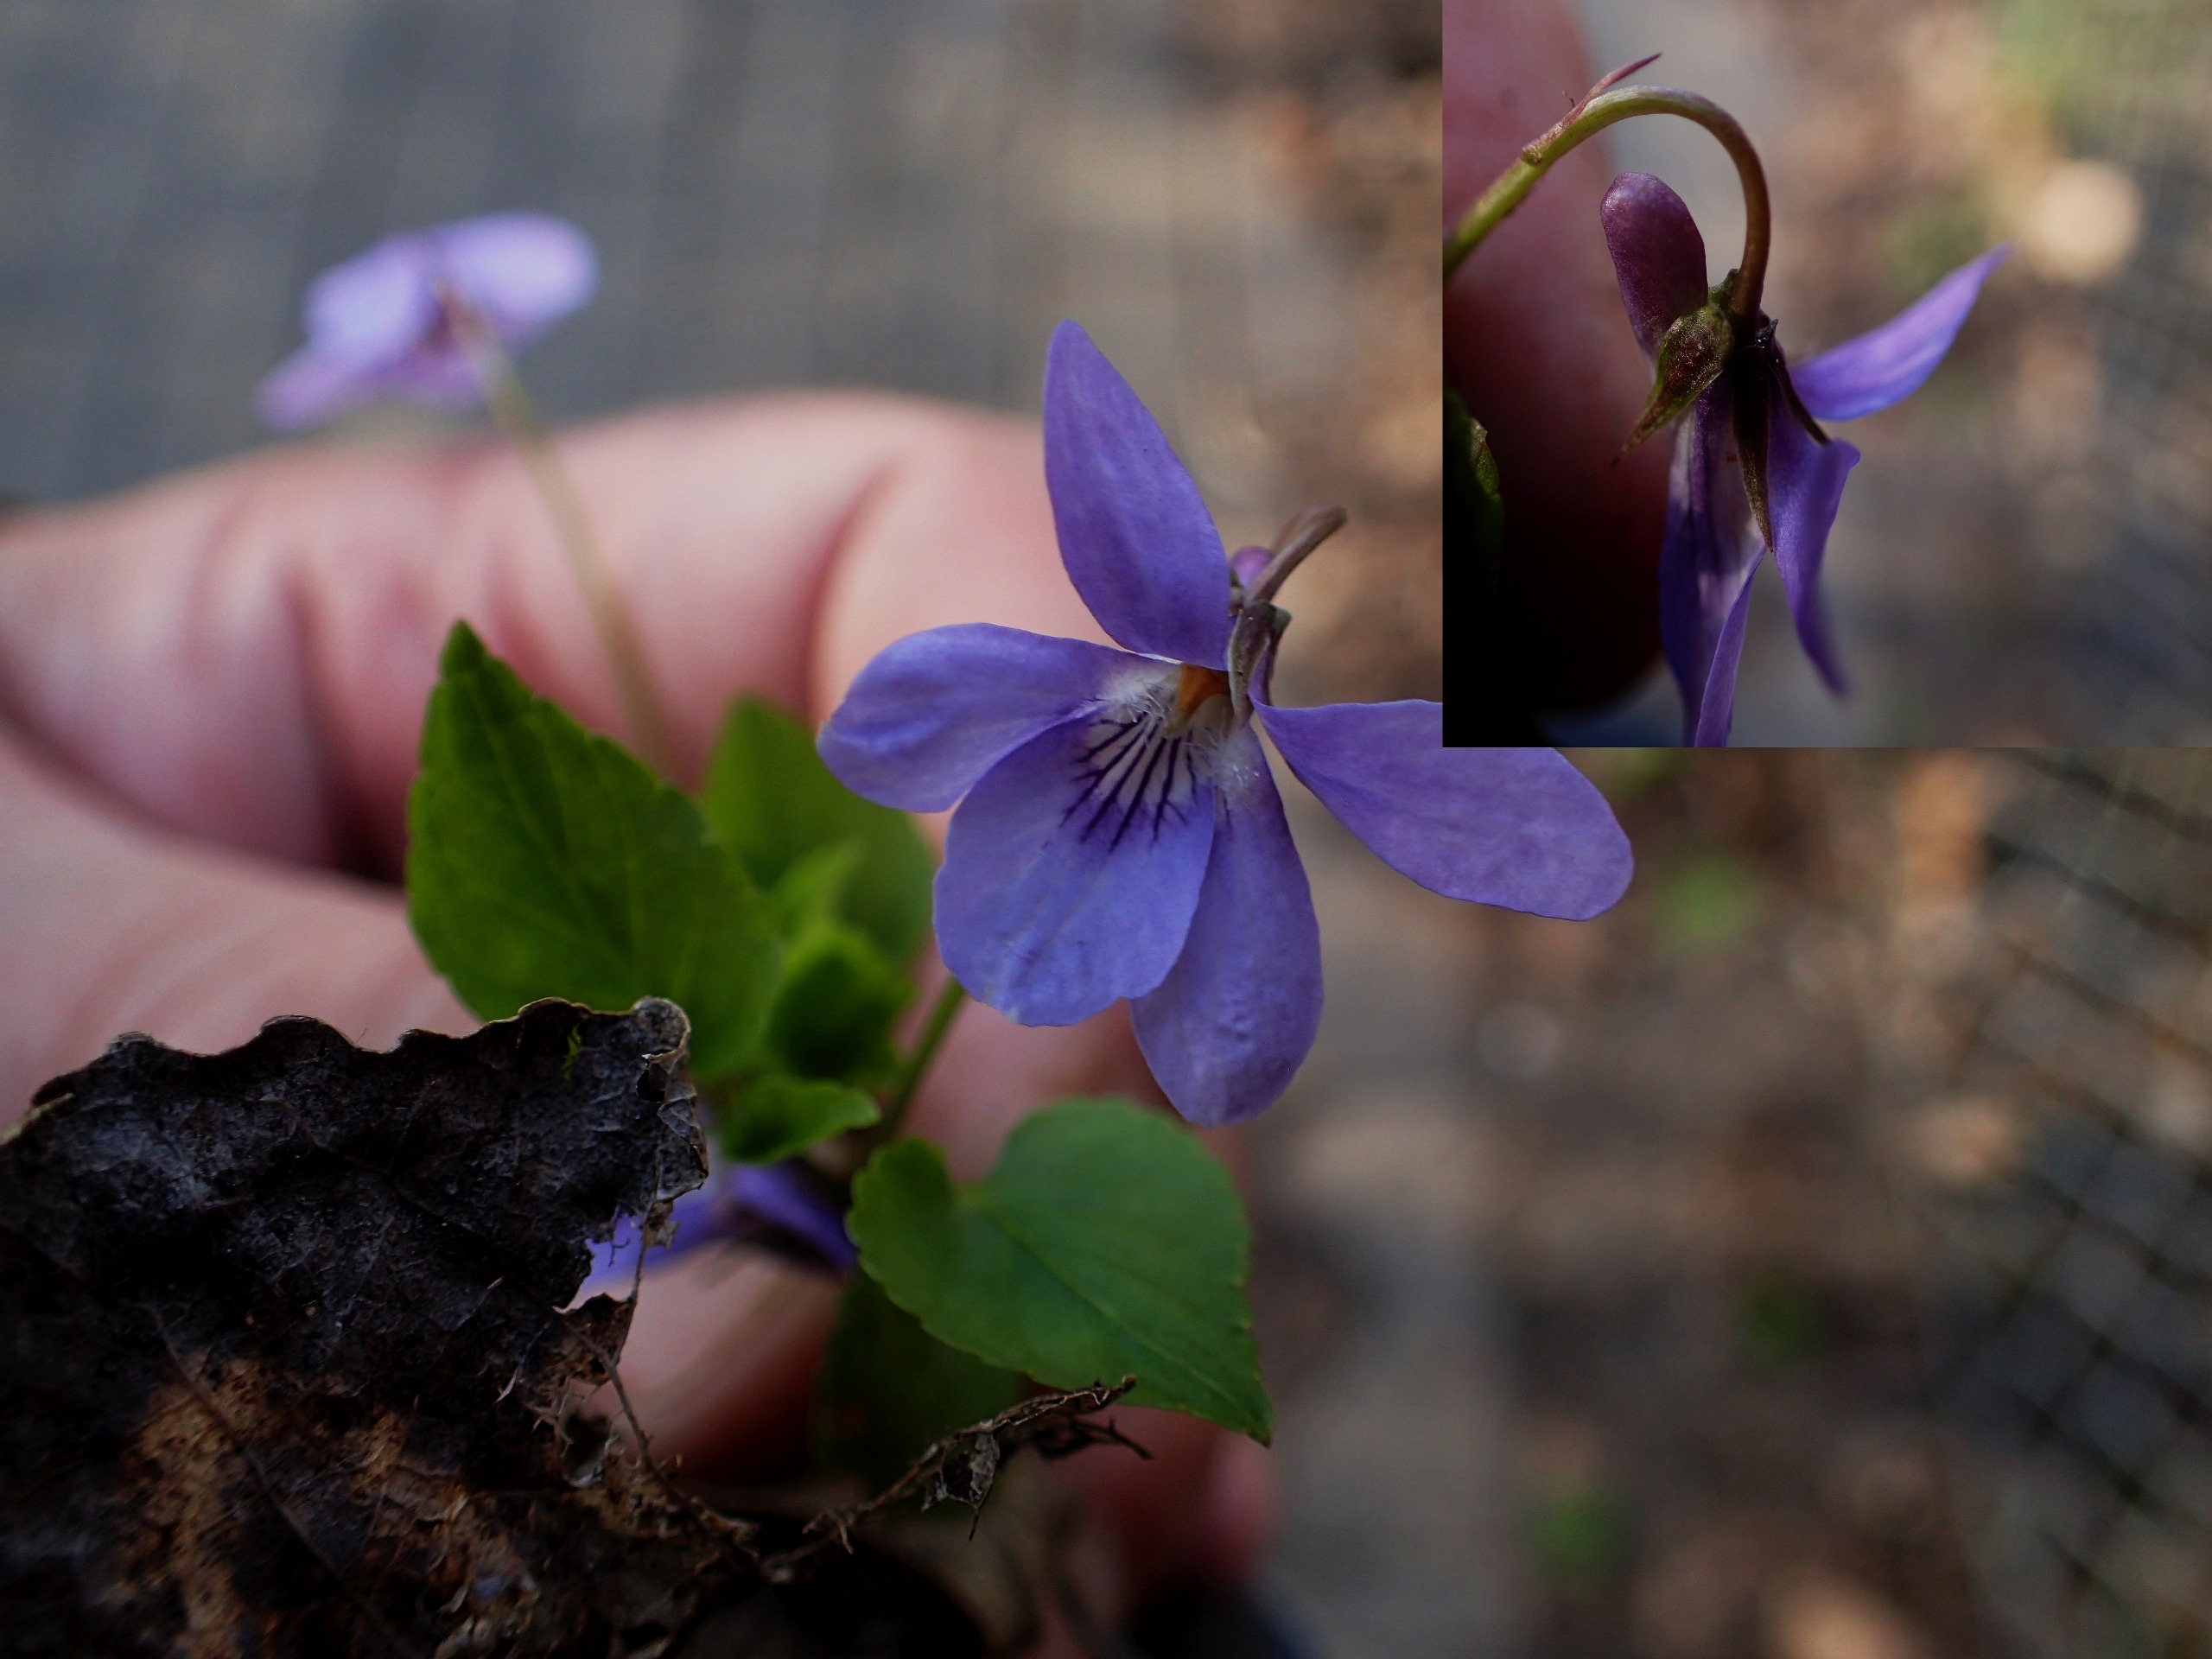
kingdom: Plantae
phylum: Tracheophyta
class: Magnoliopsida
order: Malpighiales
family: Violaceae
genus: Viola
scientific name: Viola reichenbachiana
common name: Skov-viol
